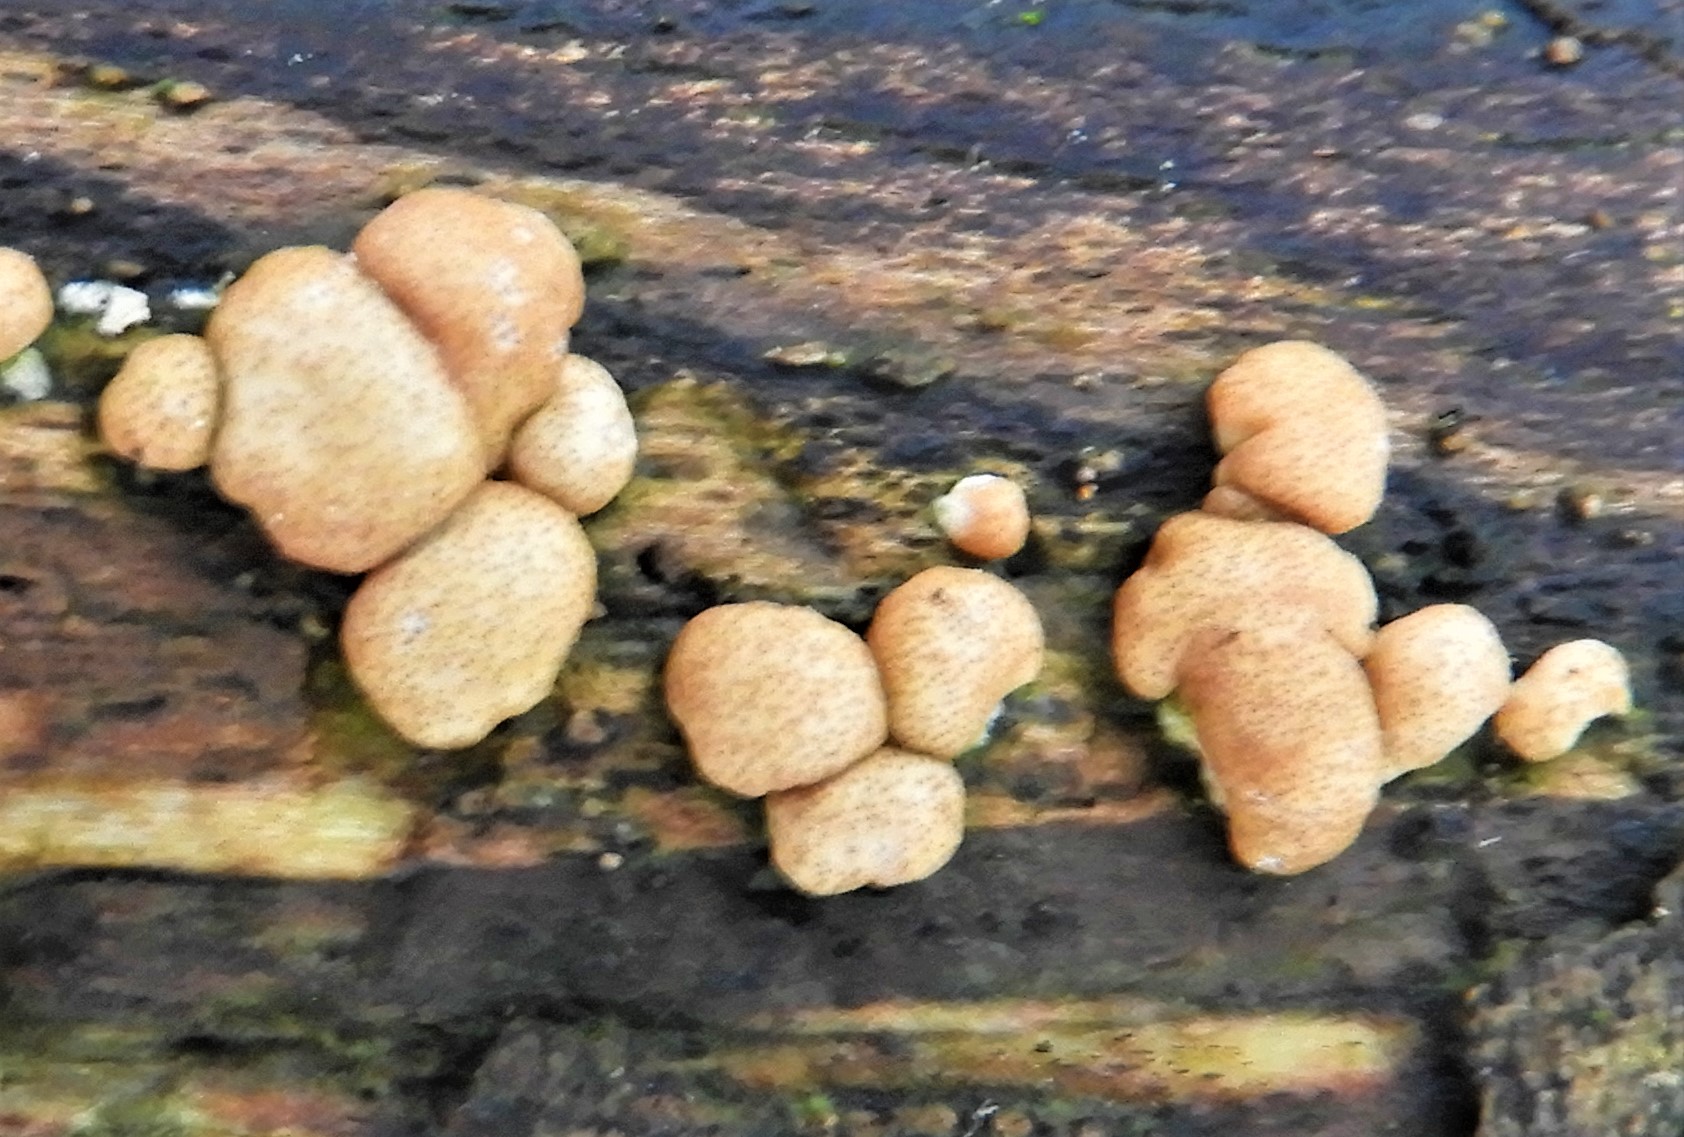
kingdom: Fungi
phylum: Ascomycota
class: Sordariomycetes
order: Hypocreales
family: Hypocreaceae
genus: Trichoderma
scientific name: Trichoderma europaeum
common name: rosabrun kødkerne
